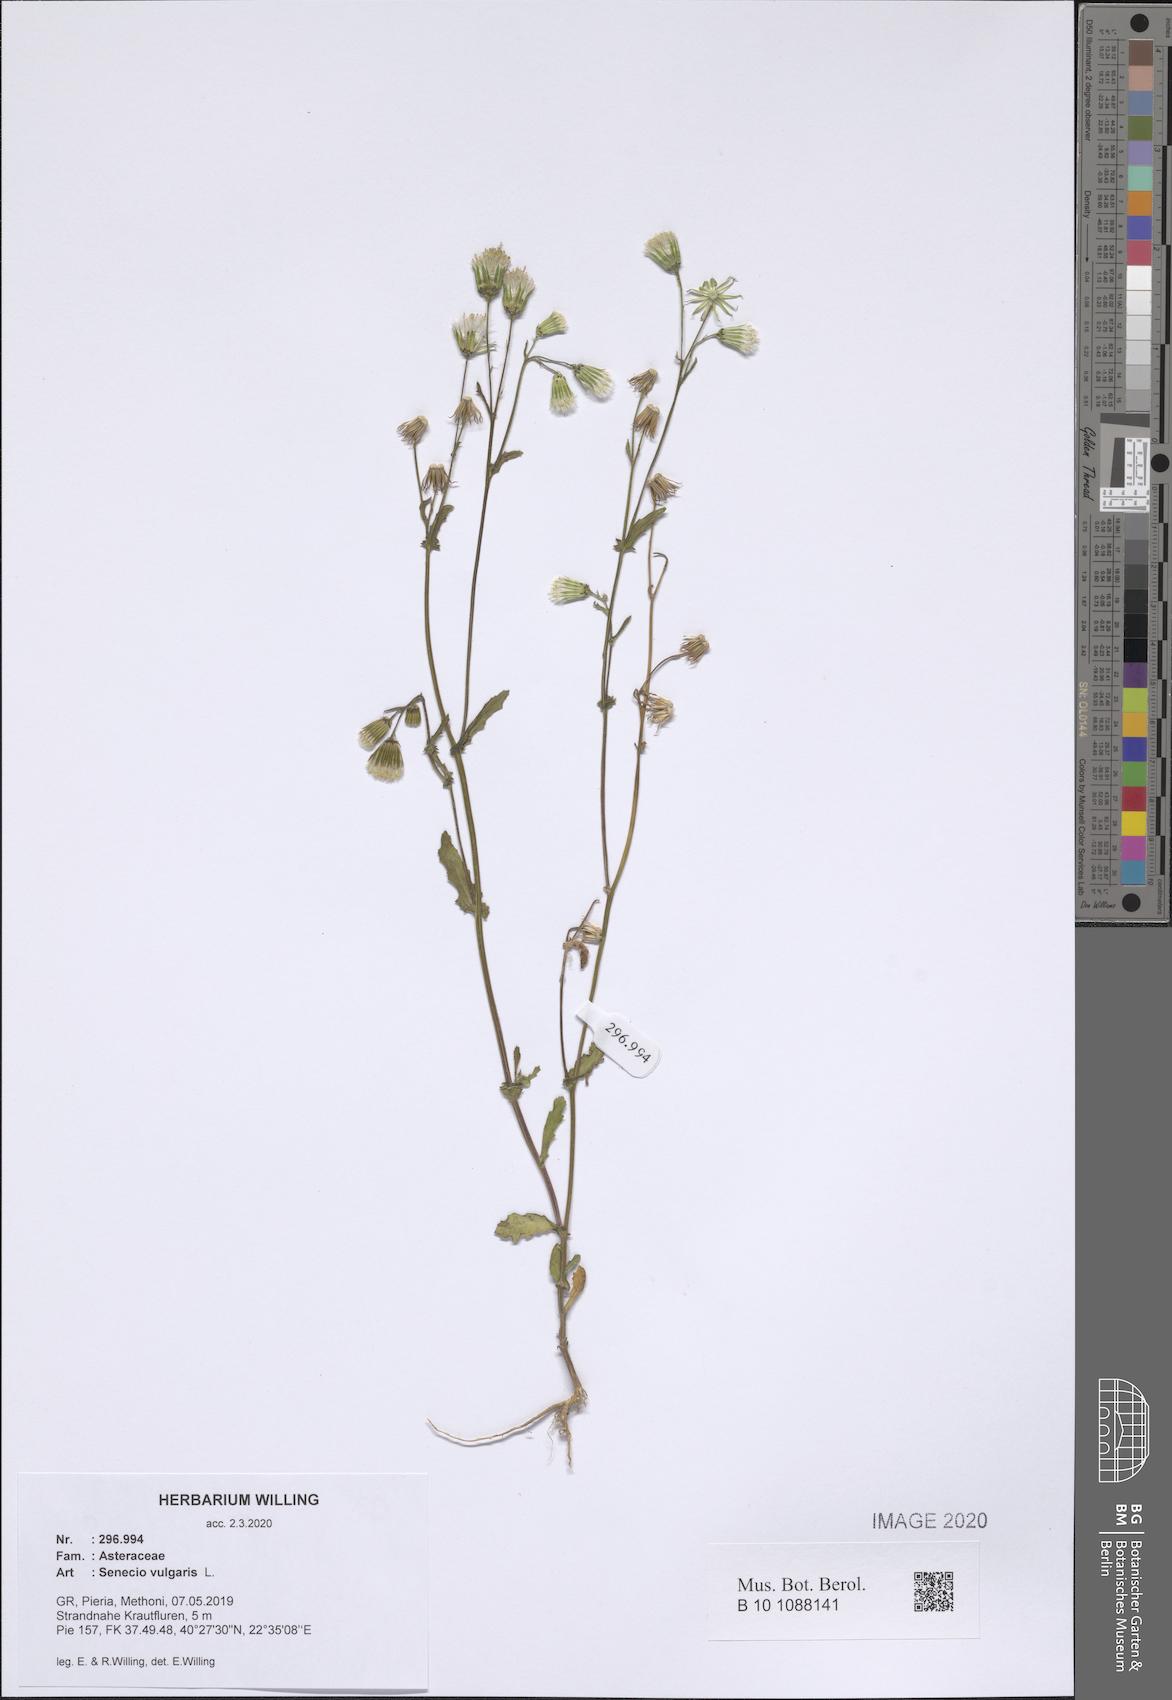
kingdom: Plantae
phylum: Tracheophyta
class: Magnoliopsida
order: Asterales
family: Asteraceae
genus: Senecio
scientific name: Senecio vulgaris
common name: Old-man-in-the-spring
